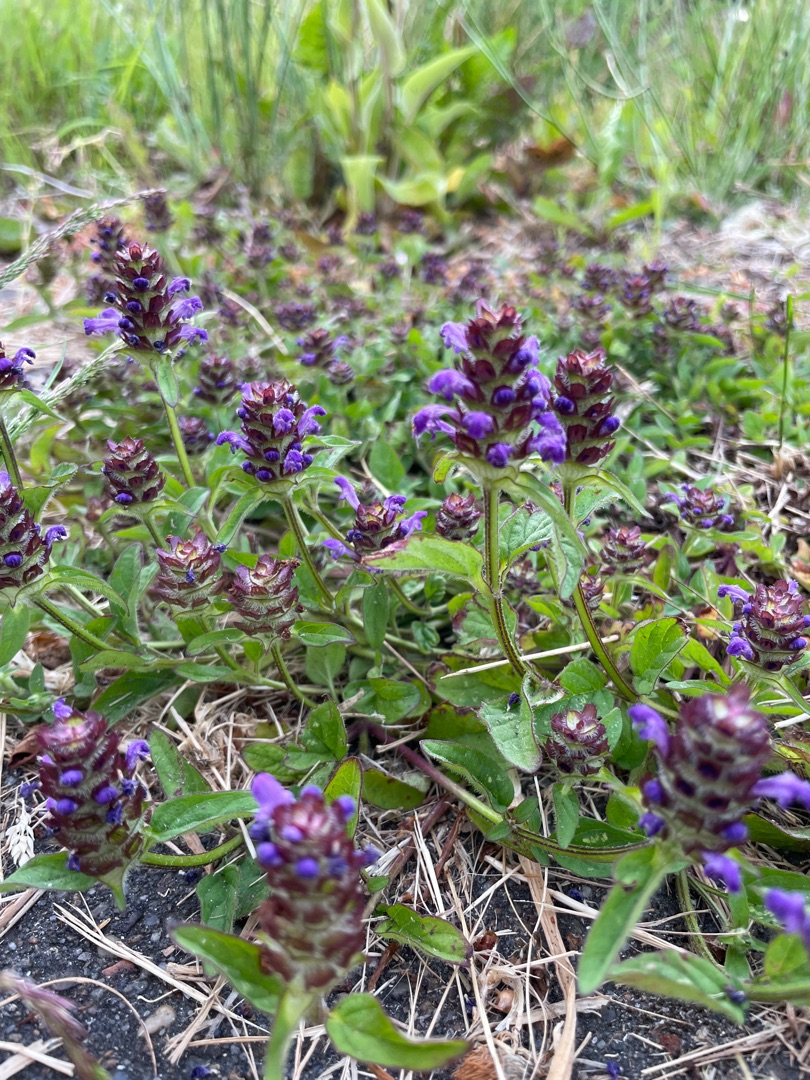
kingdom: Plantae
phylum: Tracheophyta
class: Magnoliopsida
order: Lamiales
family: Lamiaceae
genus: Prunella
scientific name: Prunella vulgaris
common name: Almindelig brunelle
